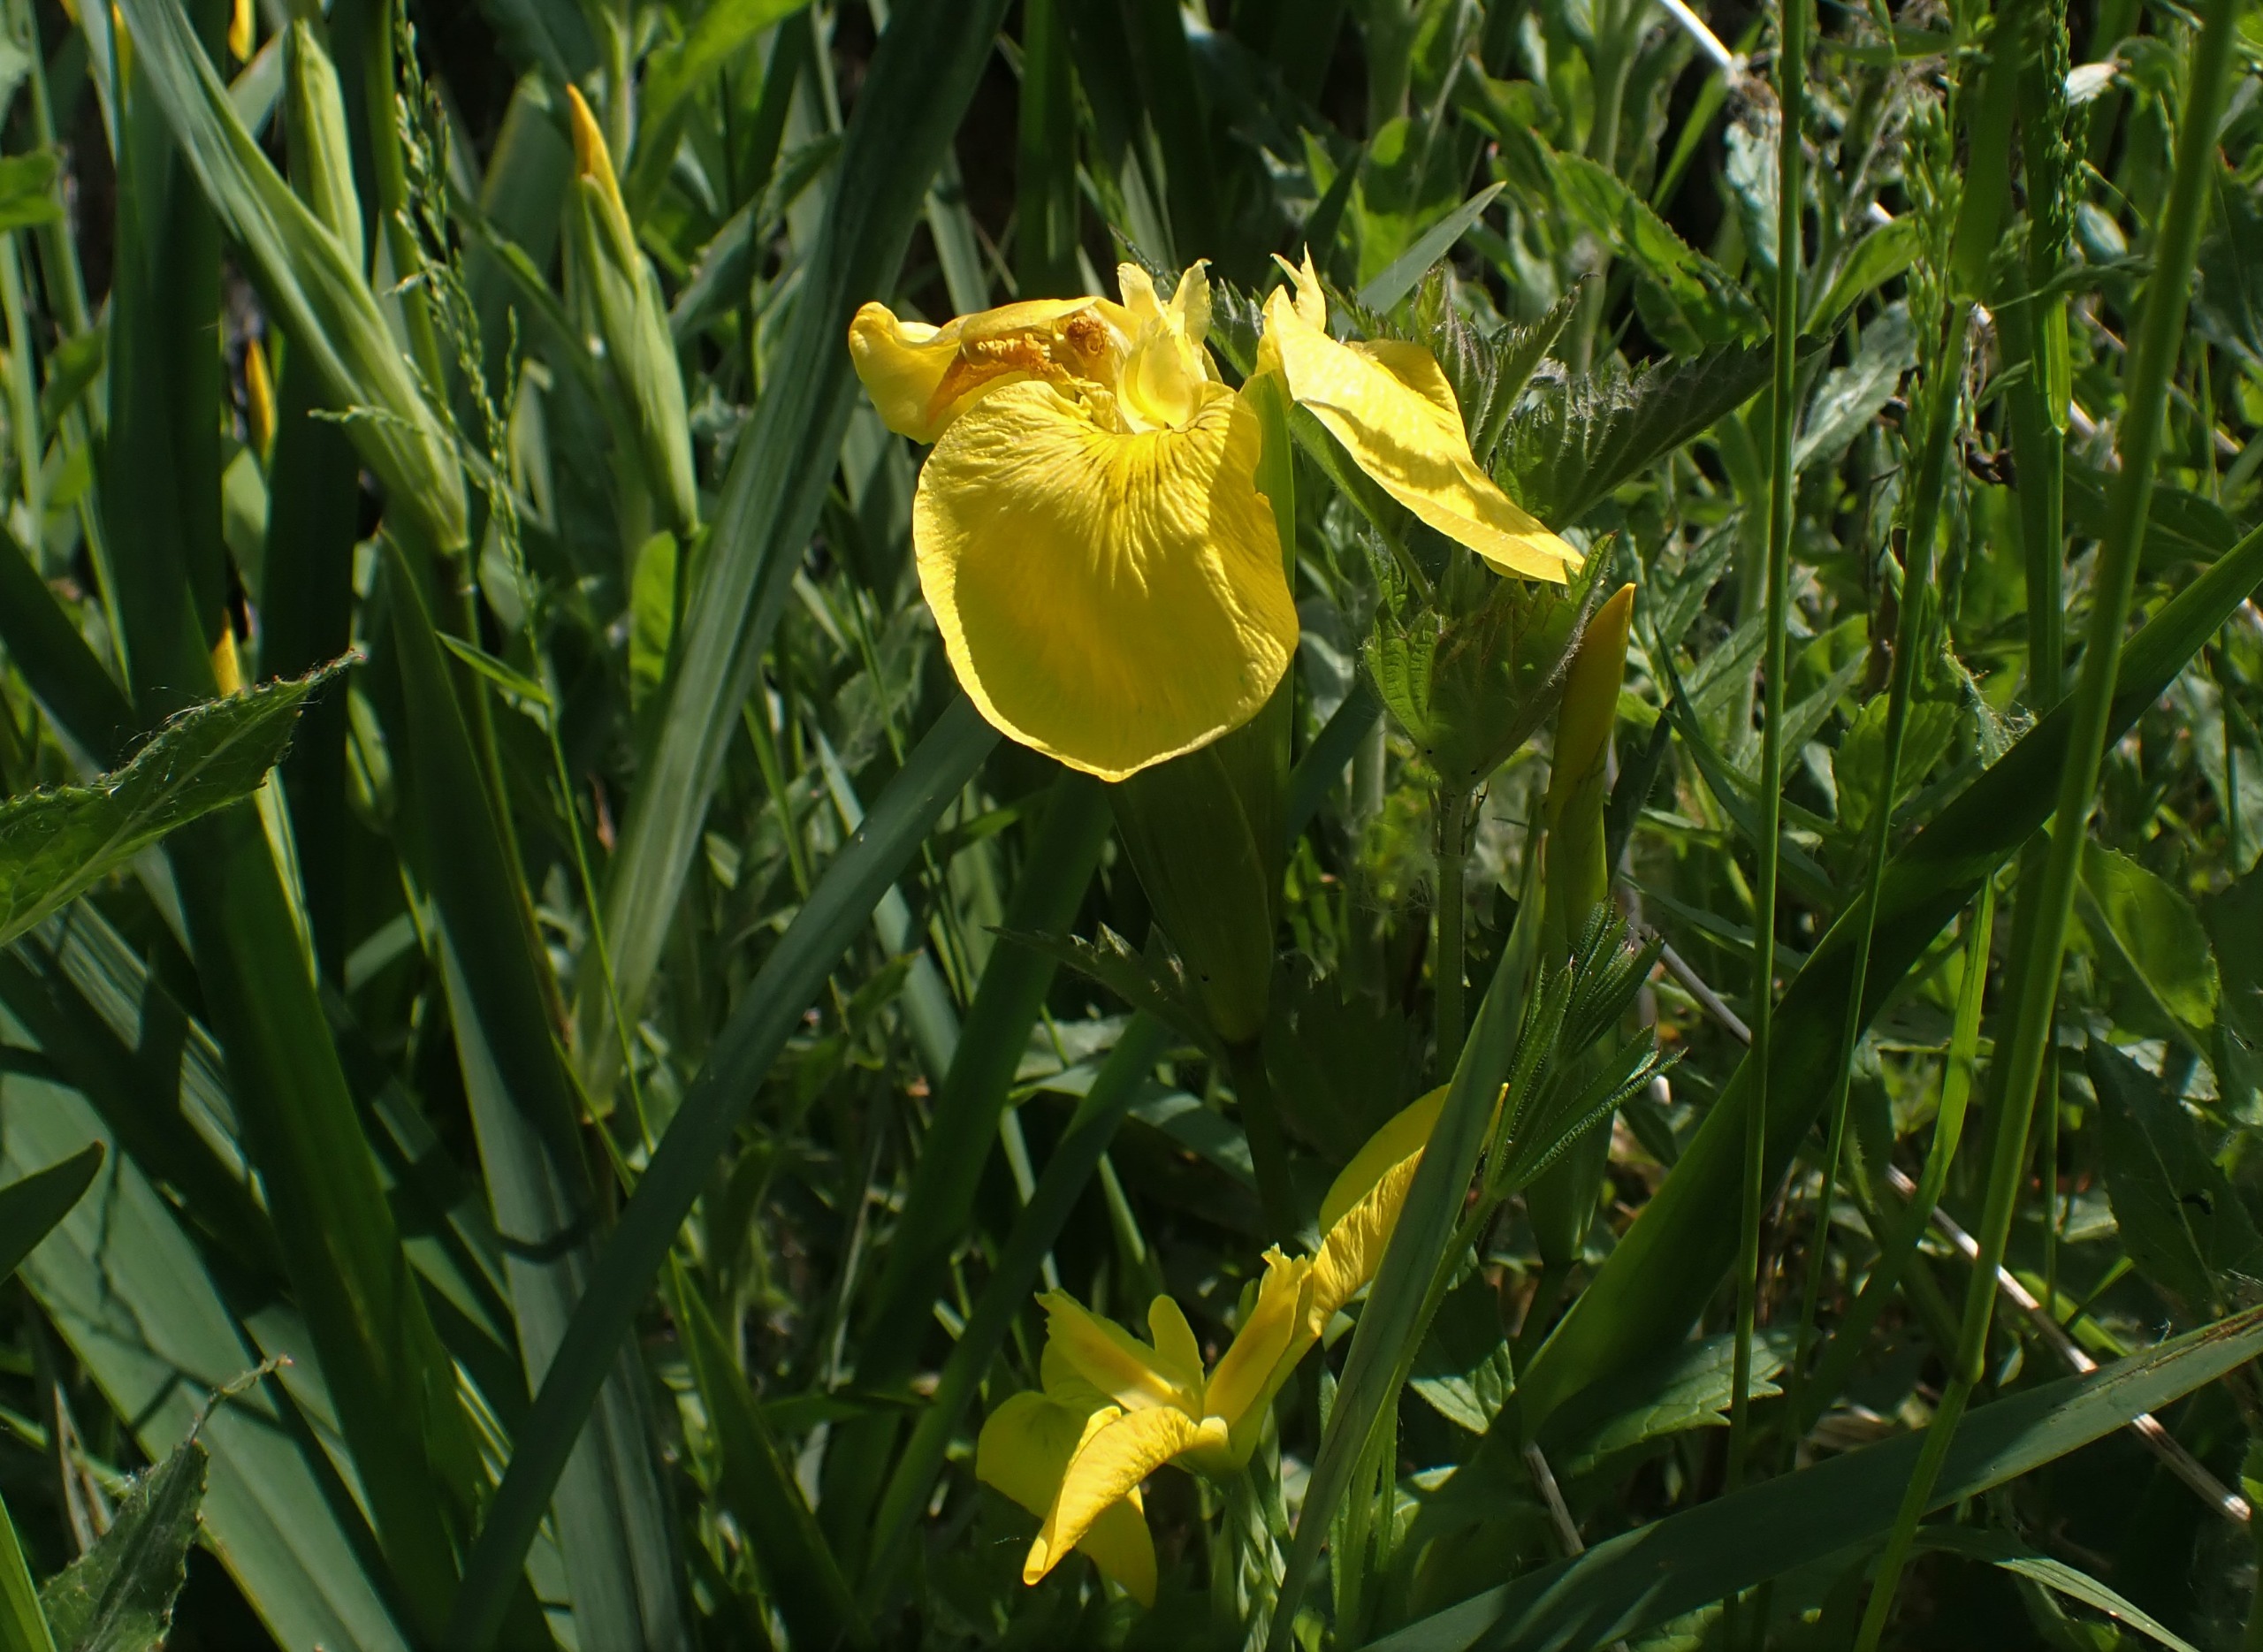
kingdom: Plantae
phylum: Tracheophyta
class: Liliopsida
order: Asparagales
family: Iridaceae
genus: Iris
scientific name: Iris pseudacorus
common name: Gul iris
